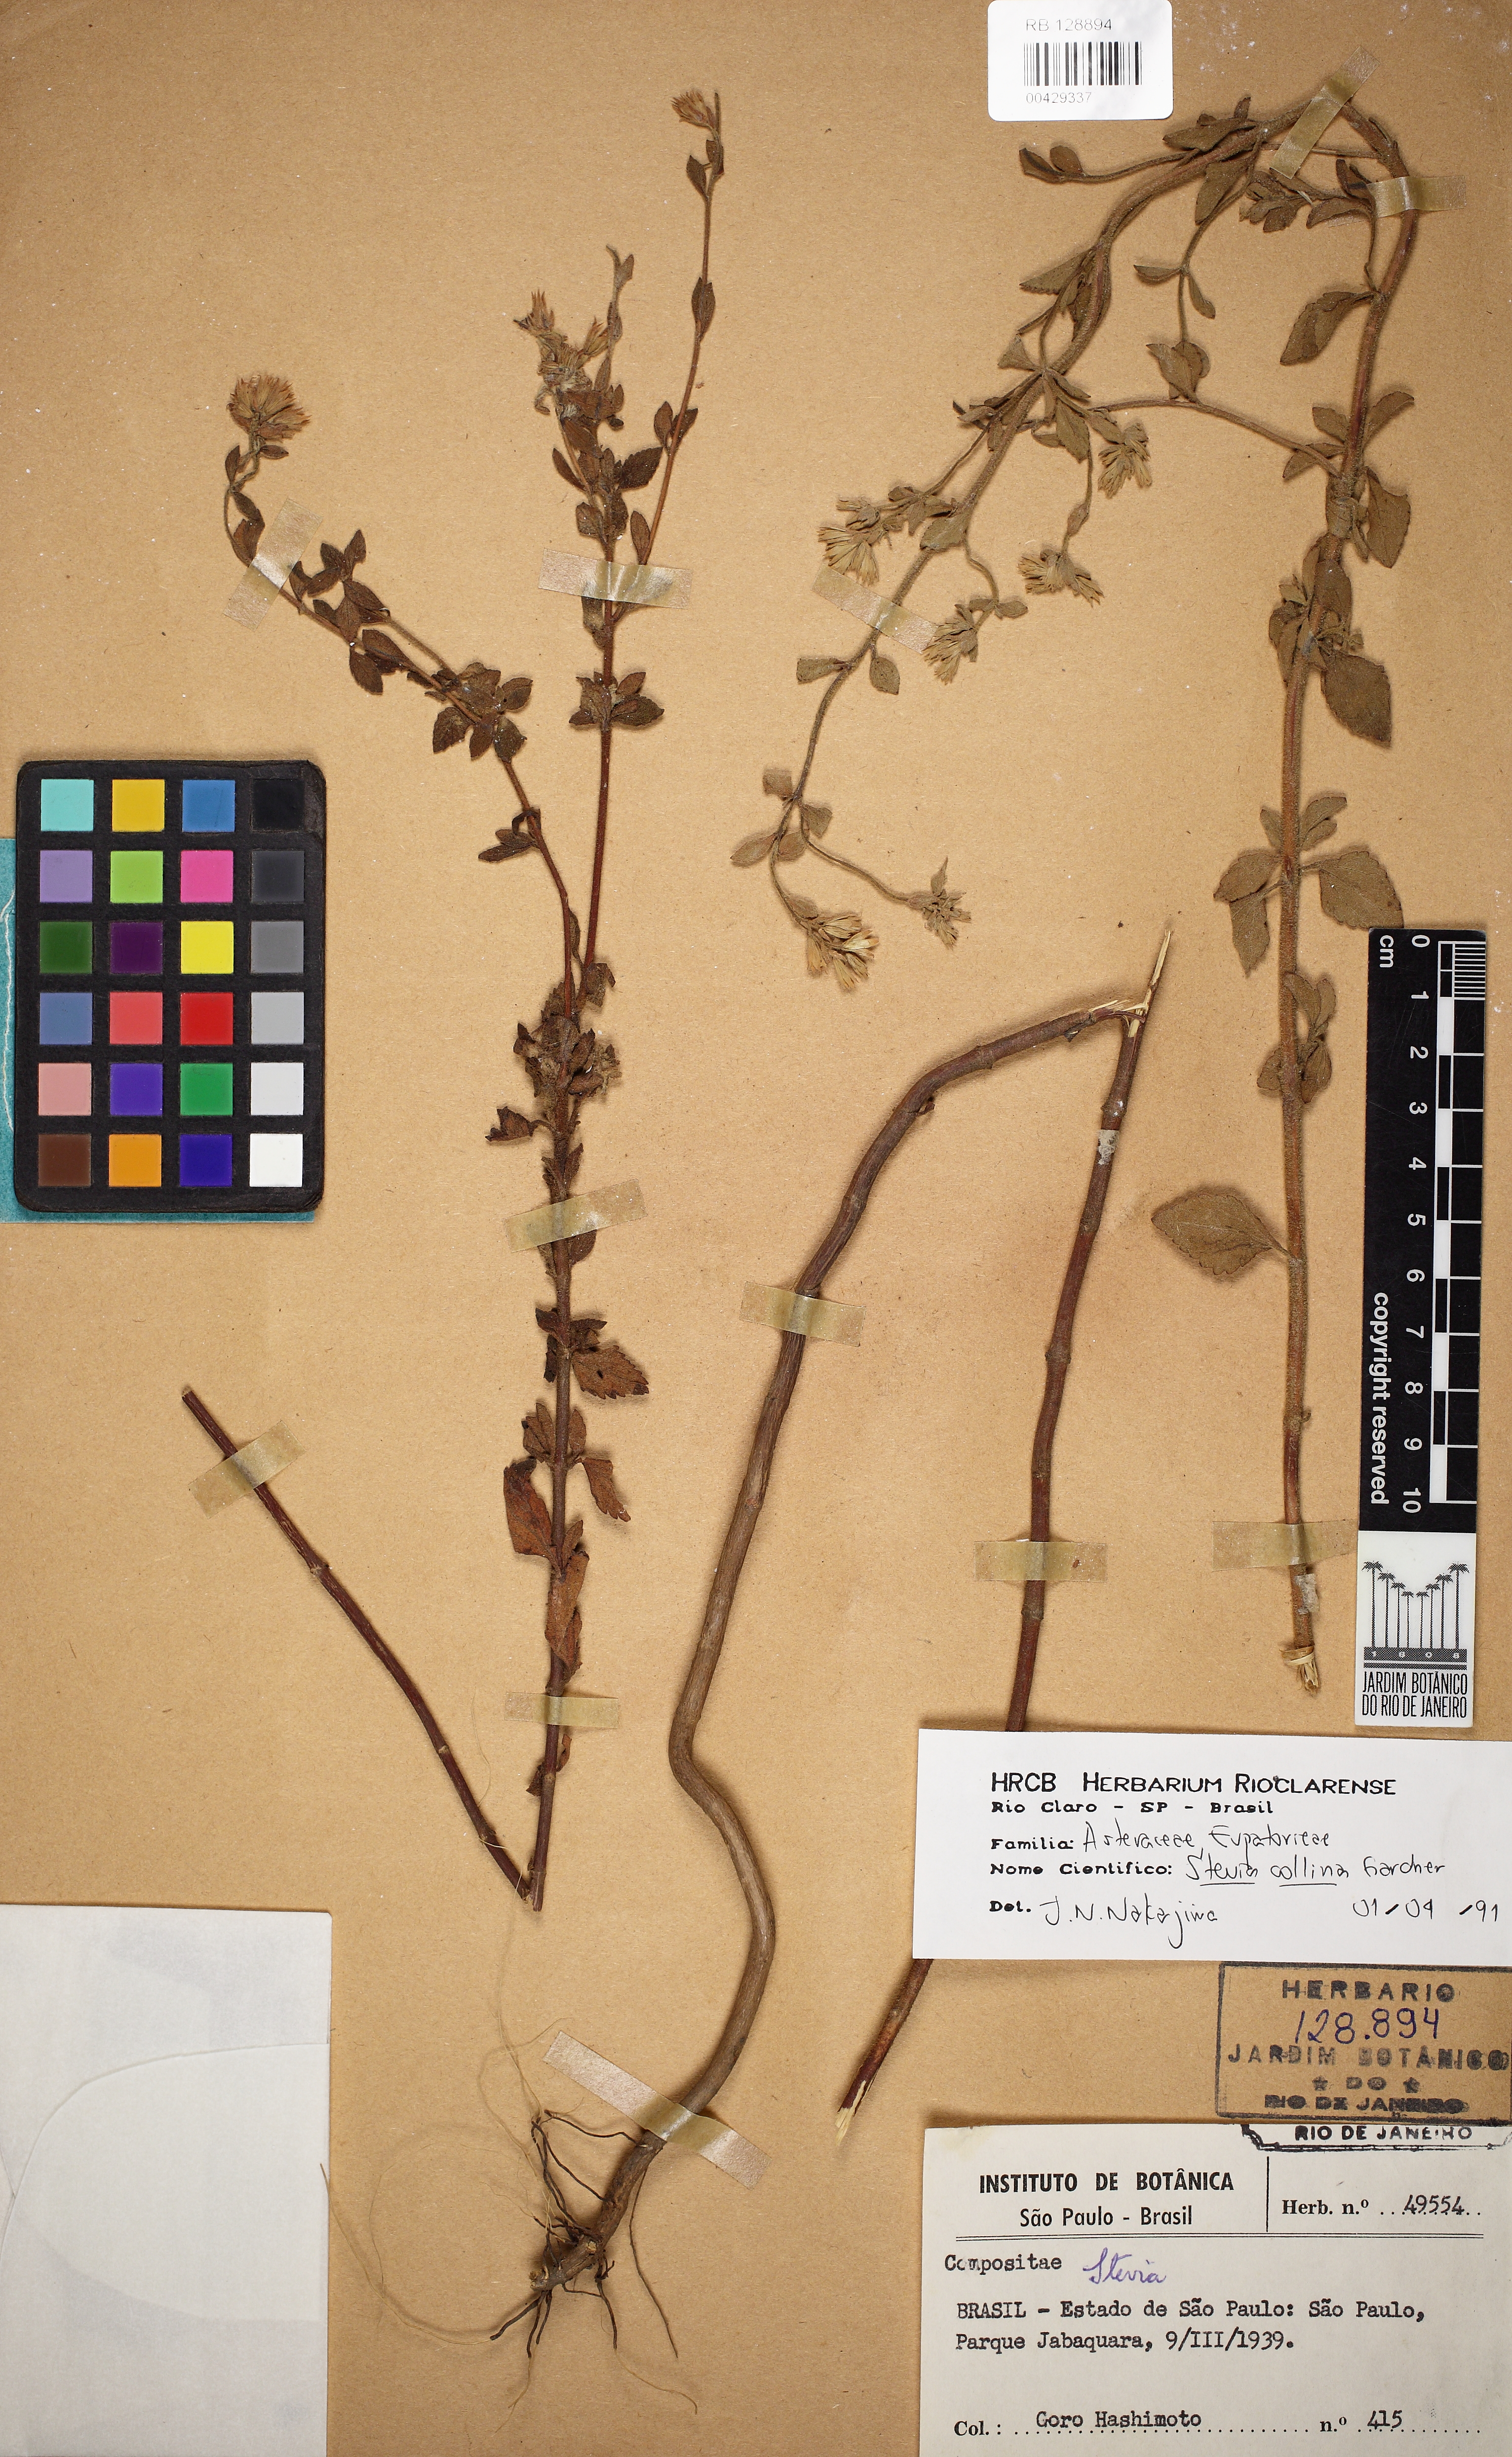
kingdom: Plantae
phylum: Tracheophyta
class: Magnoliopsida
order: Asterales
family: Asteraceae
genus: Stevia
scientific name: Stevia collina
